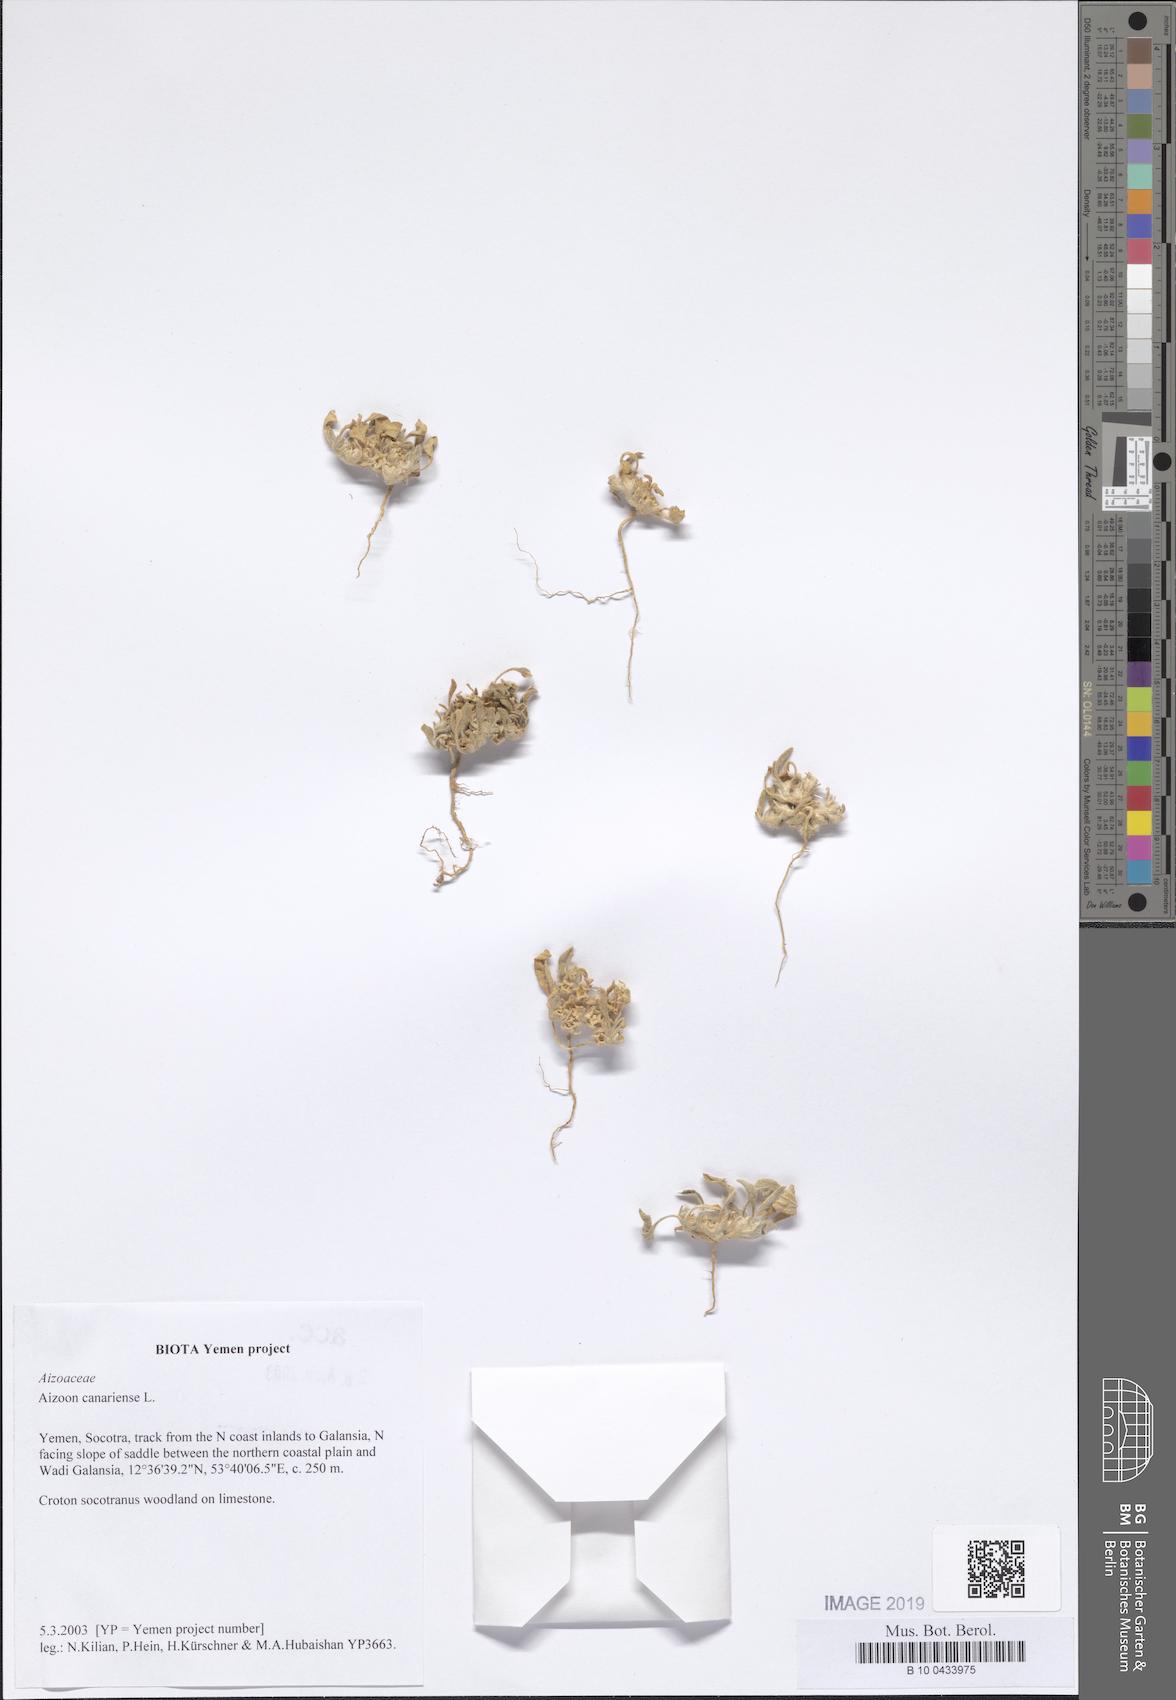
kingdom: Plantae
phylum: Tracheophyta
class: Magnoliopsida
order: Caryophyllales
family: Aizoaceae
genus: Aizoon
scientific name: Aizoon canariense
